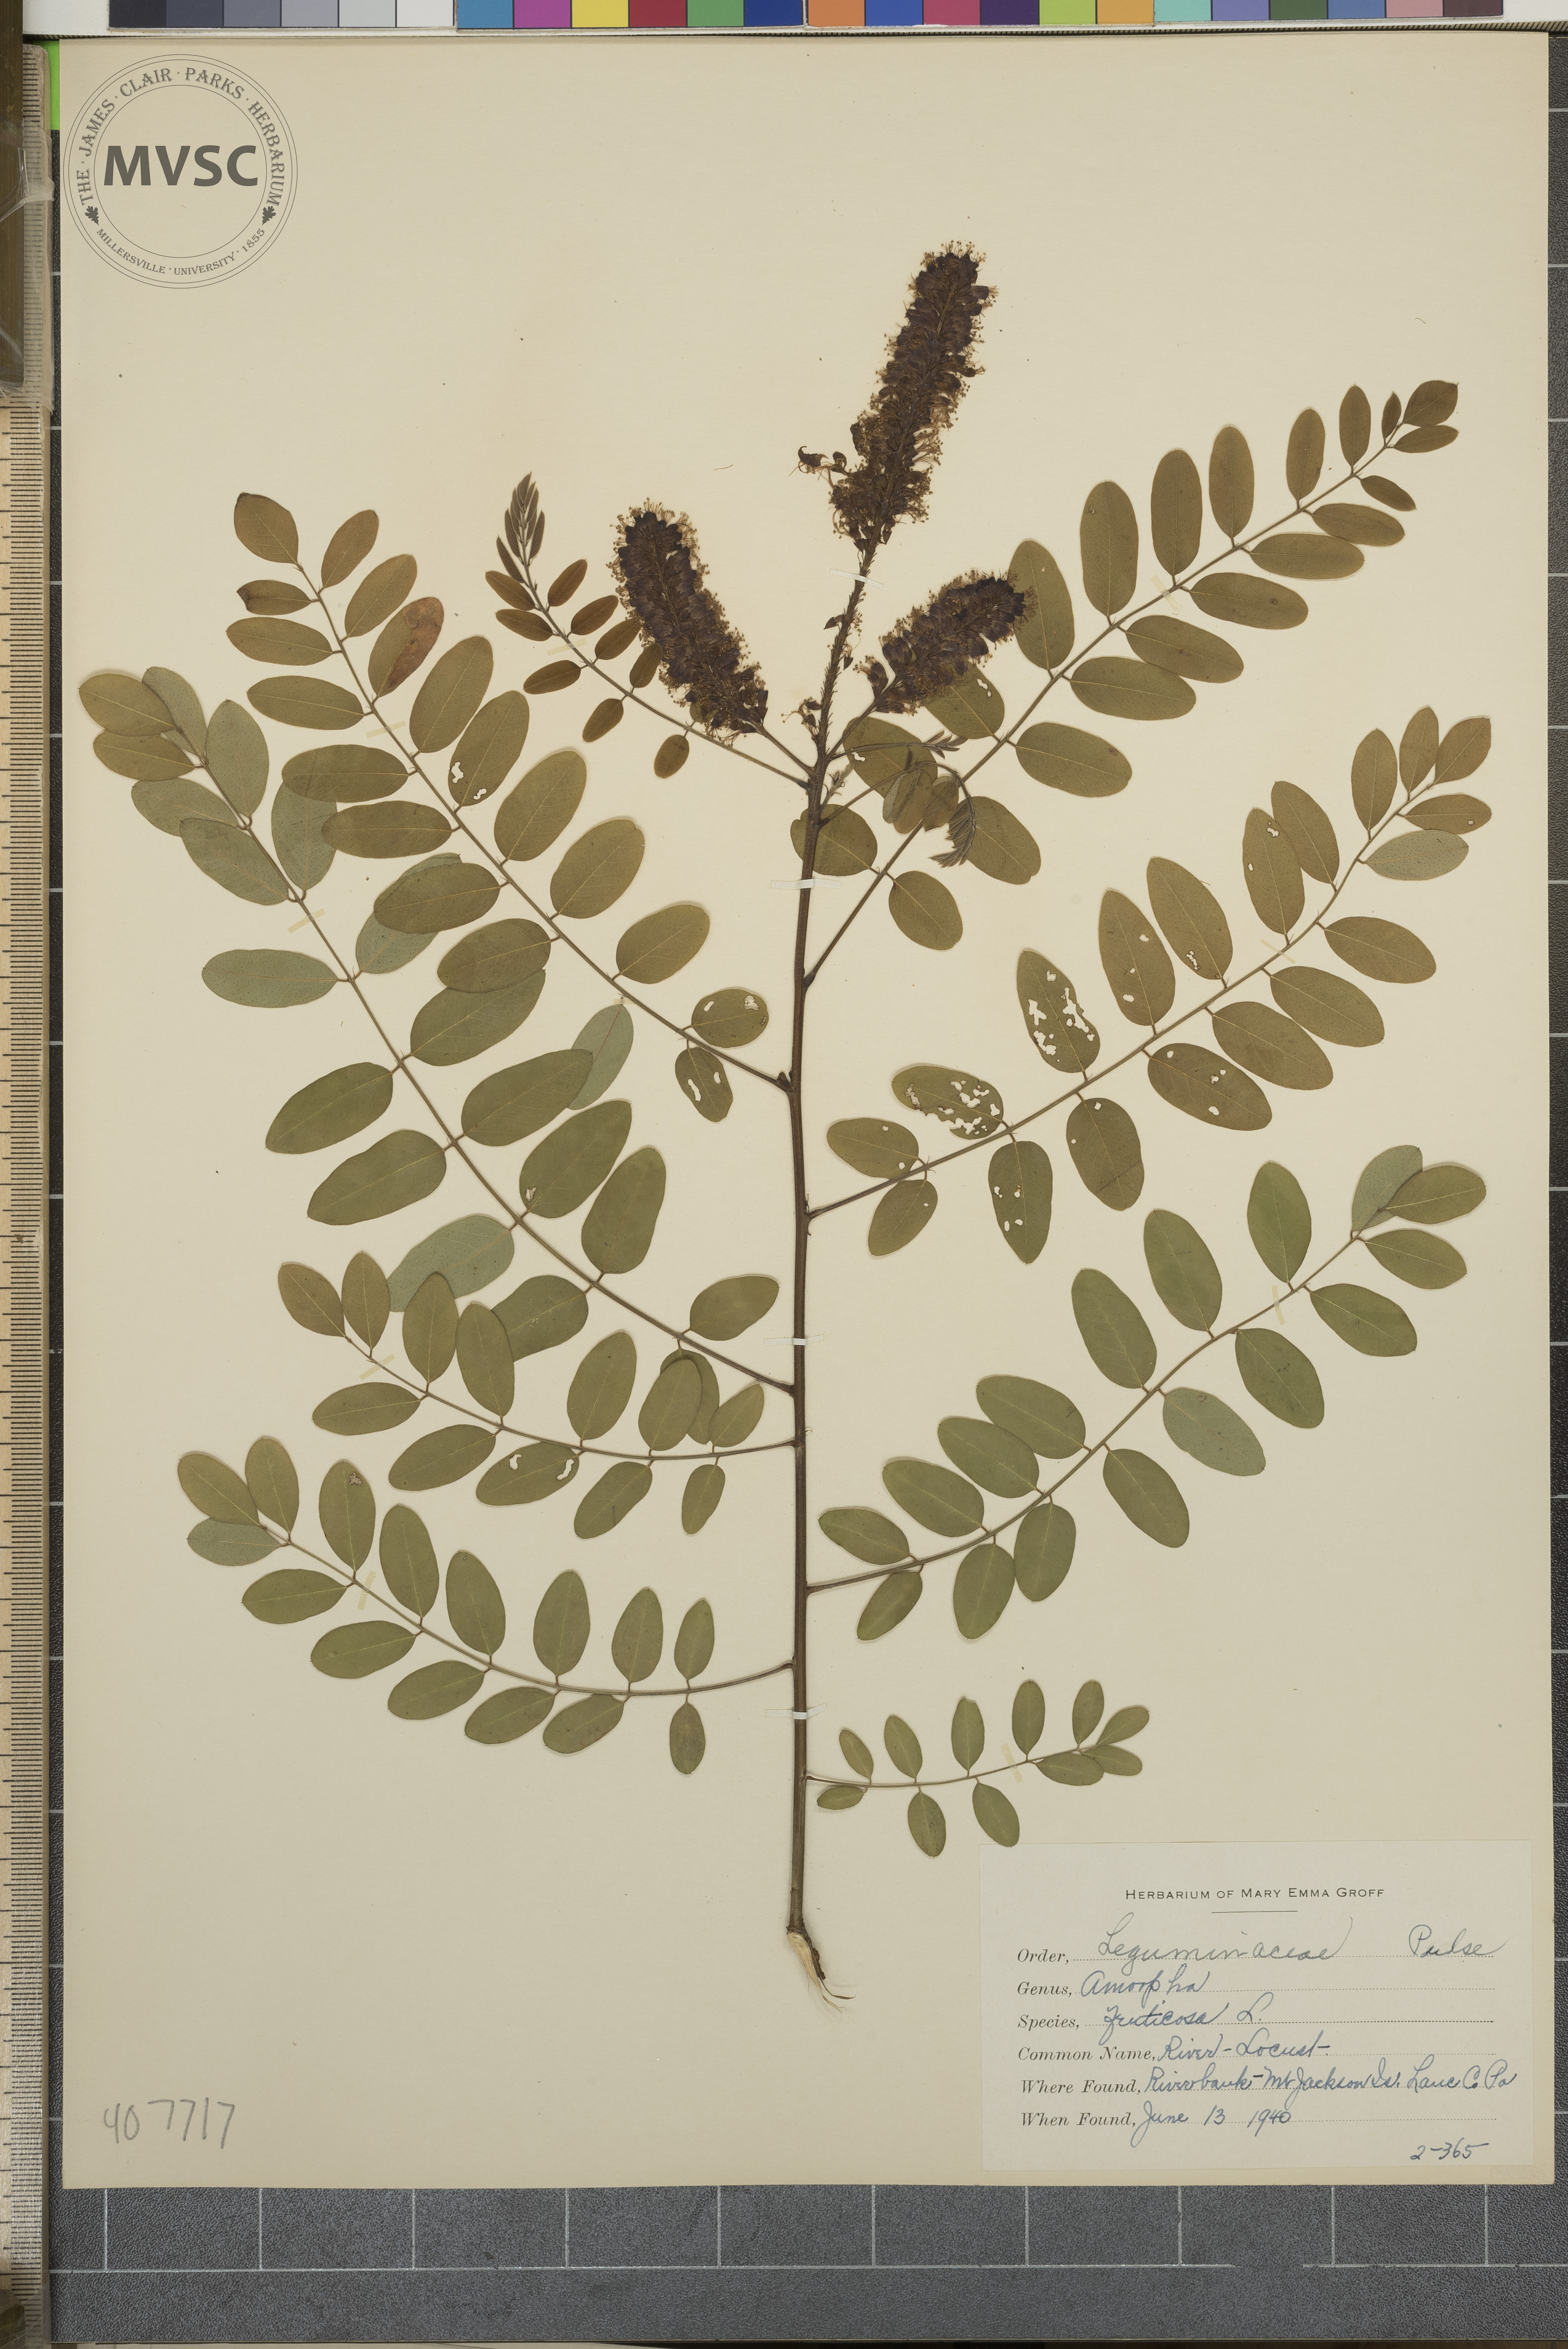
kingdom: Plantae
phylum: Tracheophyta
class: Magnoliopsida
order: Fabales
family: Fabaceae
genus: Amorpha
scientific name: Amorpha fruticosa
